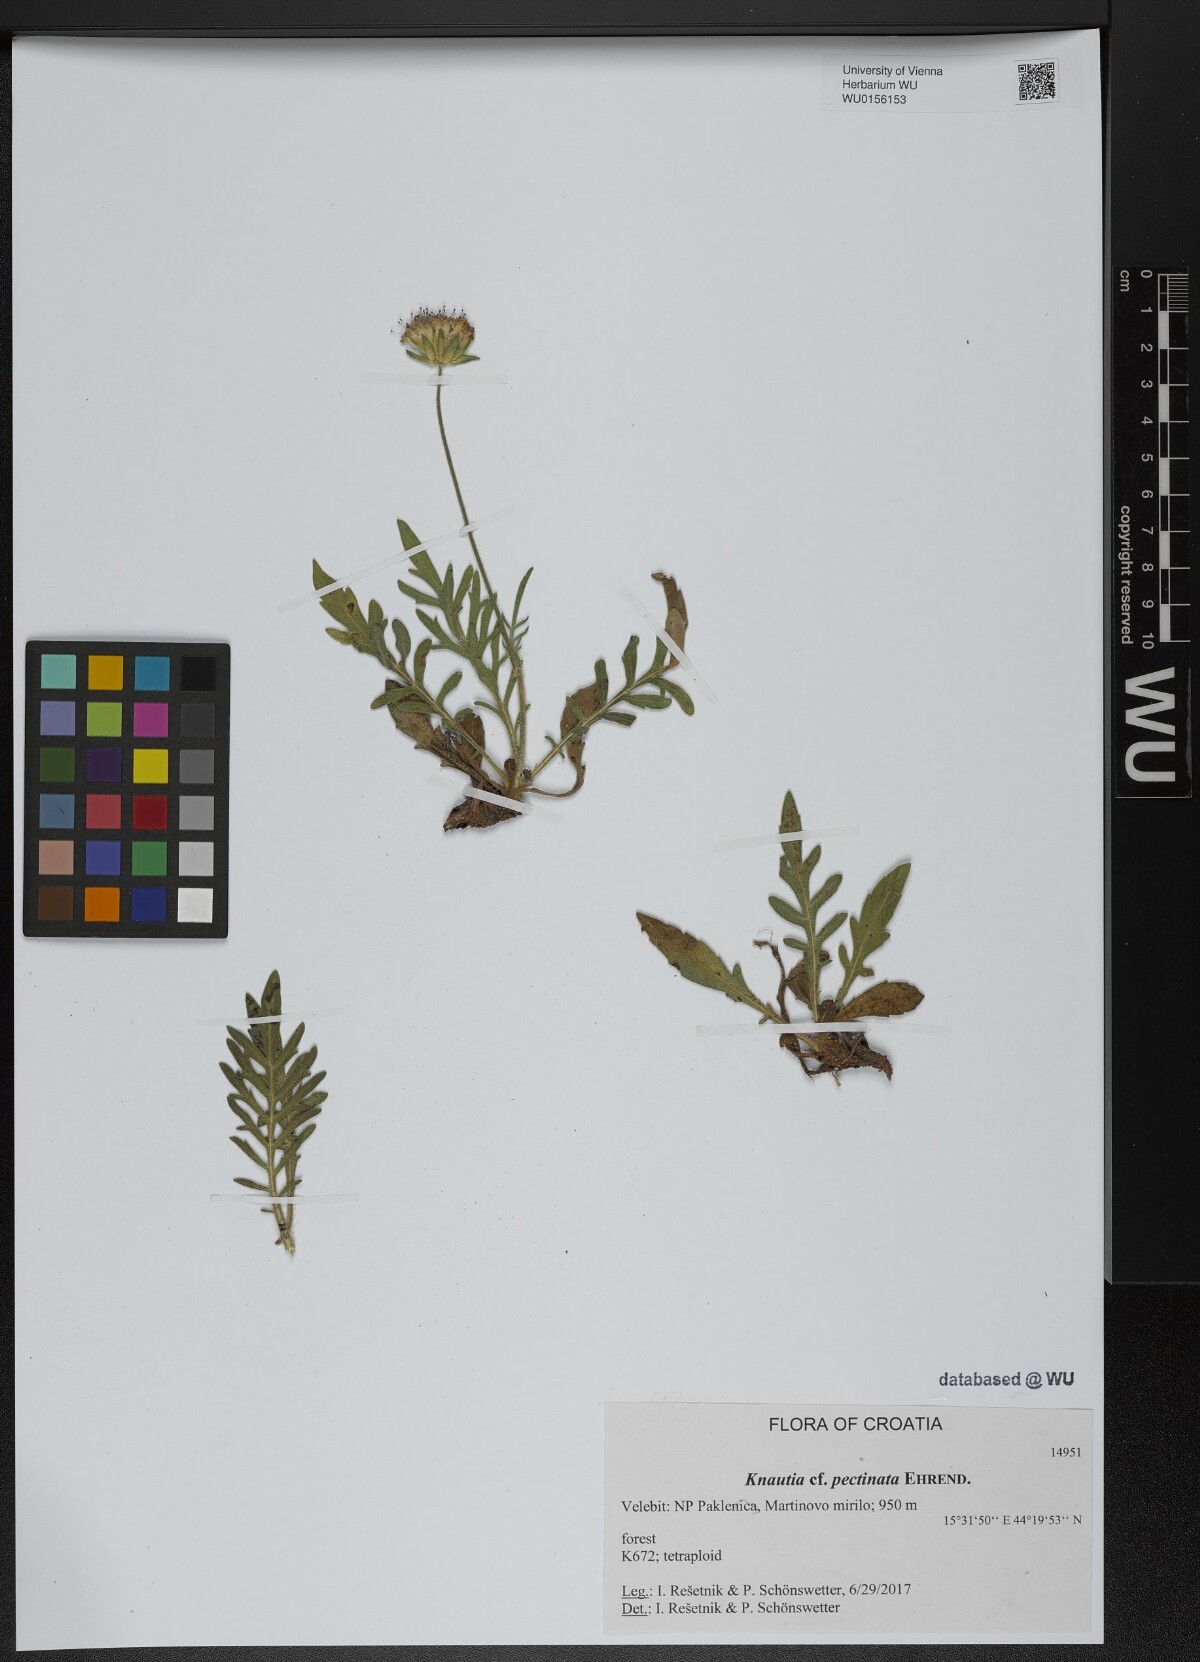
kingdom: Plantae
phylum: Tracheophyta
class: Magnoliopsida
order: Dipsacales
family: Caprifoliaceae
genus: Knautia
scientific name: Knautia pectinata
